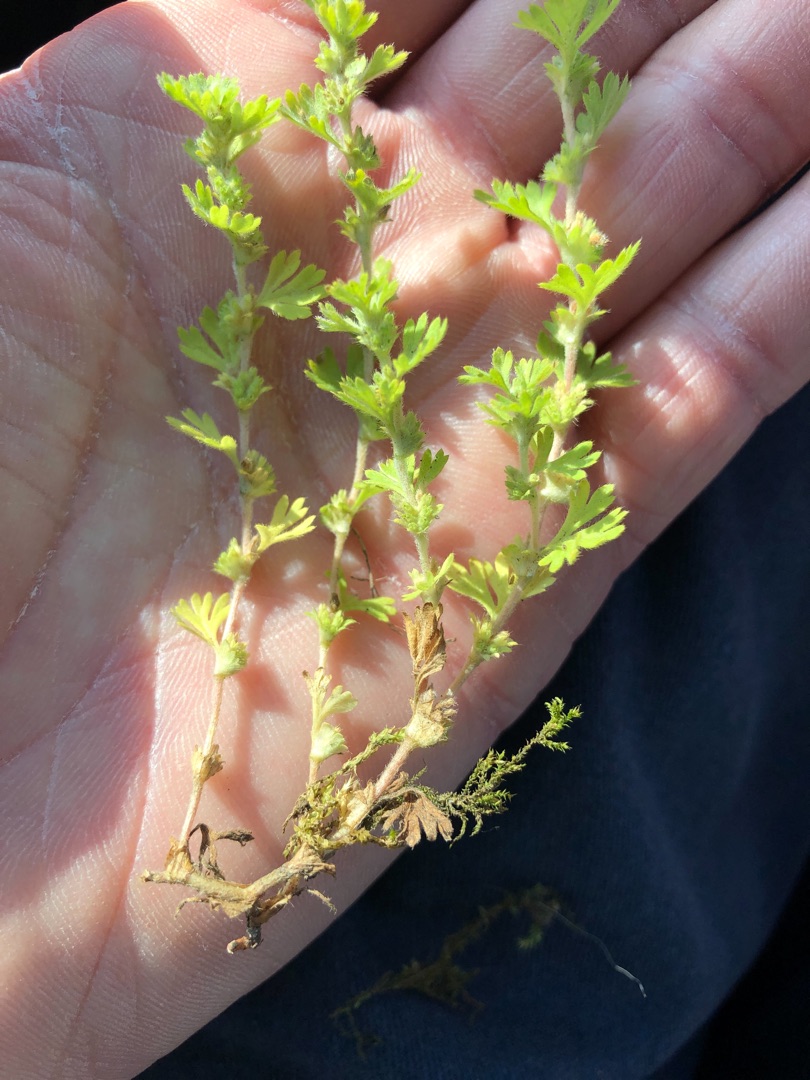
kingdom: Plantae
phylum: Tracheophyta
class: Magnoliopsida
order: Rosales
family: Rosaceae
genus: Aphanes
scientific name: Aphanes australis
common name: Småfrugtet dværgløvefod
